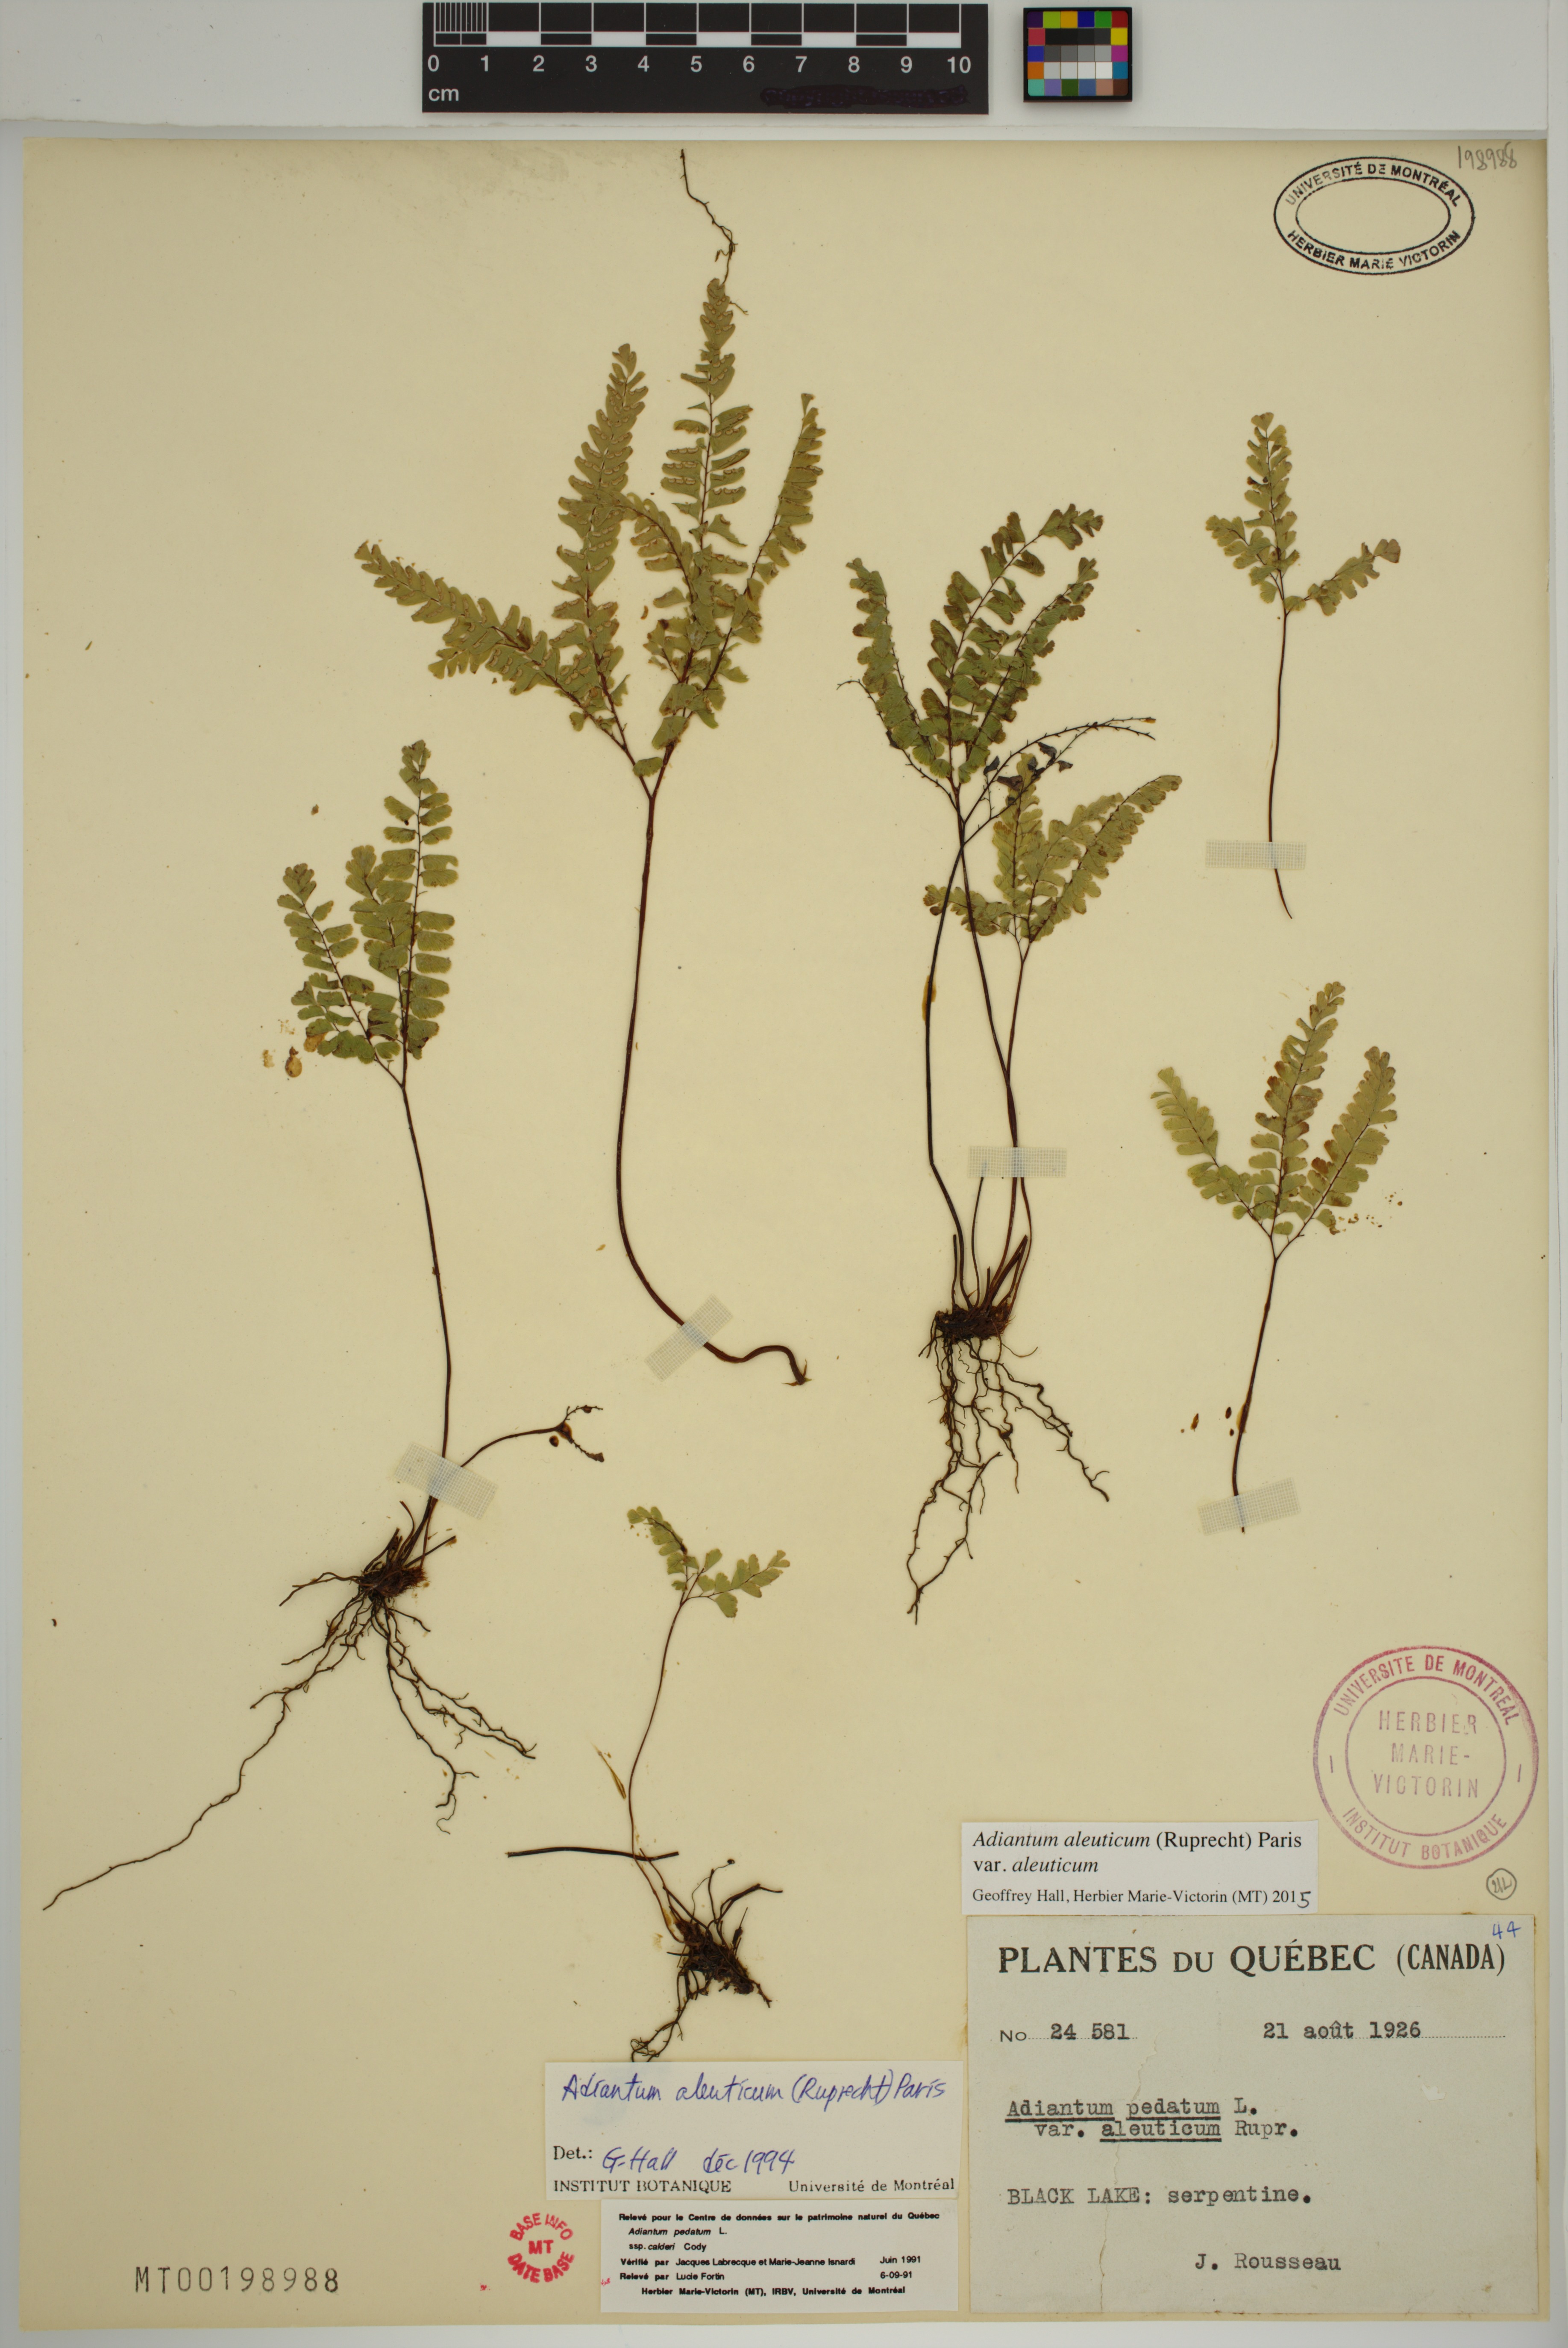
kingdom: Plantae
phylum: Tracheophyta
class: Polypodiopsida
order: Polypodiales
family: Pteridaceae
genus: Adiantum
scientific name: Adiantum aleuticum
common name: Aleutian maidenhair fern
